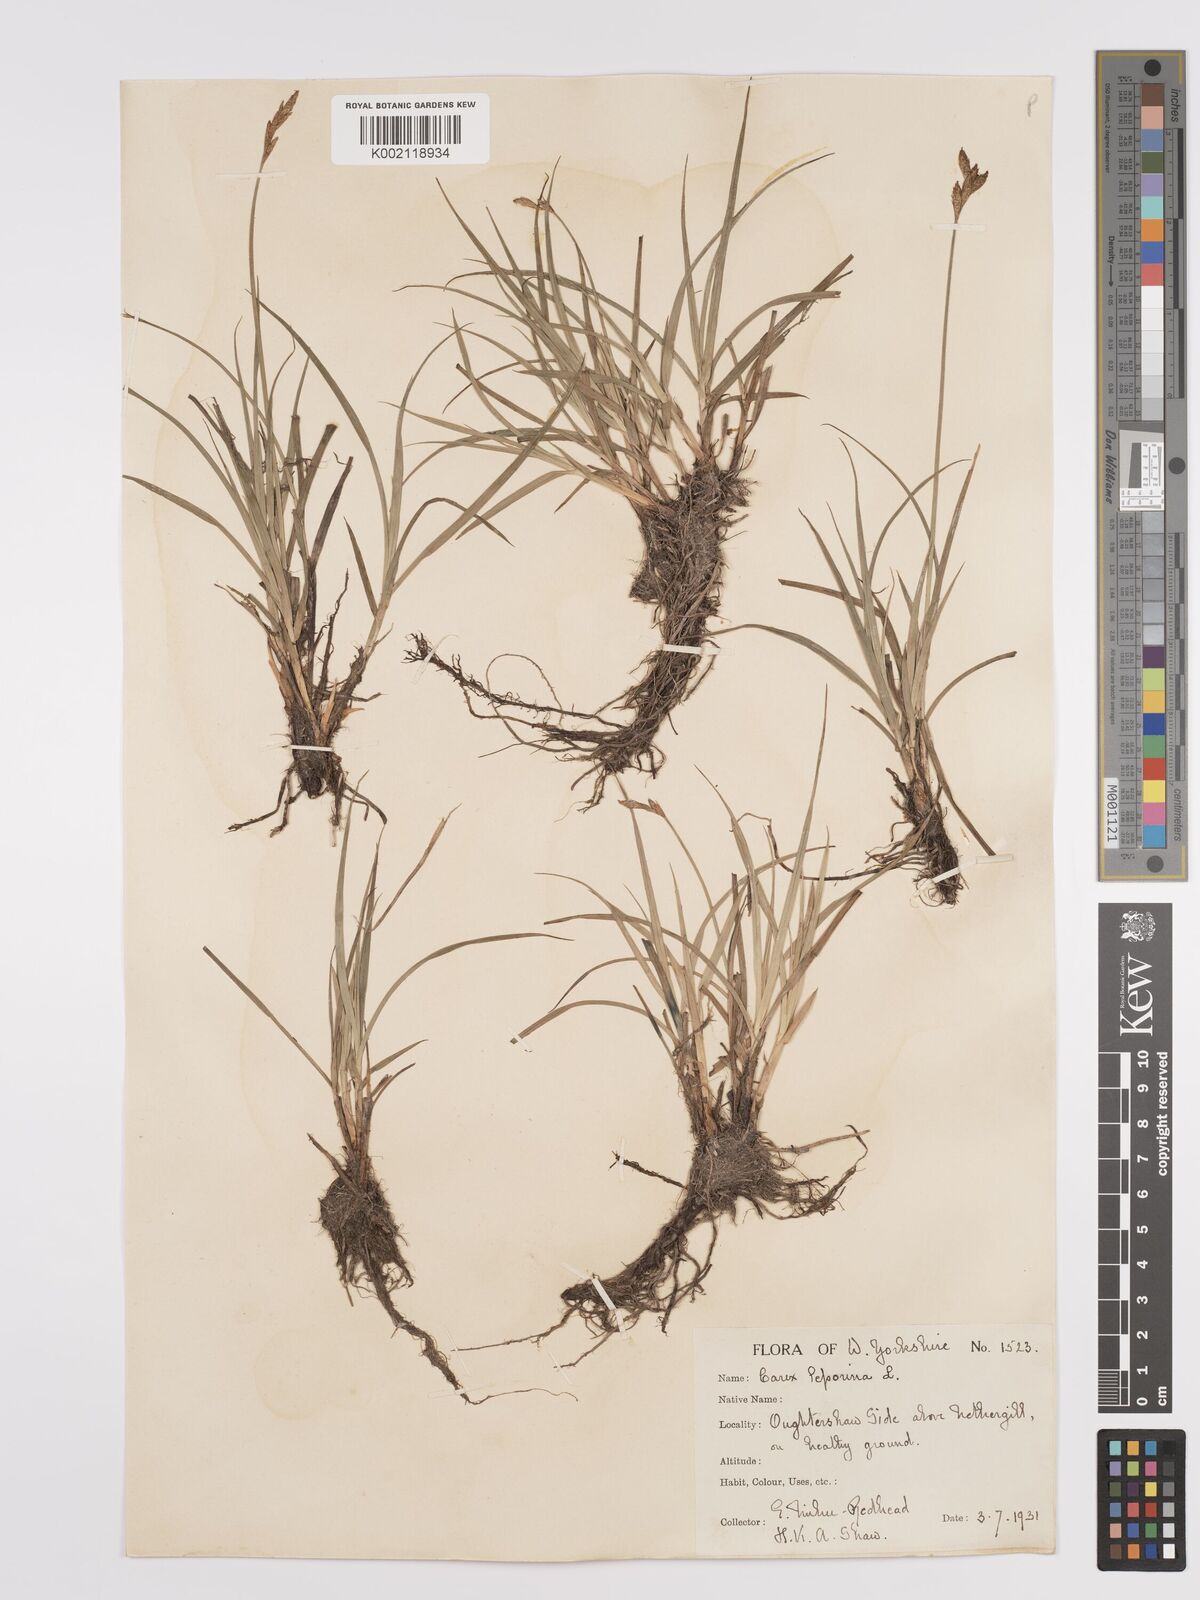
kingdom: Plantae
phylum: Tracheophyta
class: Liliopsida
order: Poales
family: Cyperaceae
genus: Carex
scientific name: Carex leporina
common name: Oval sedge
